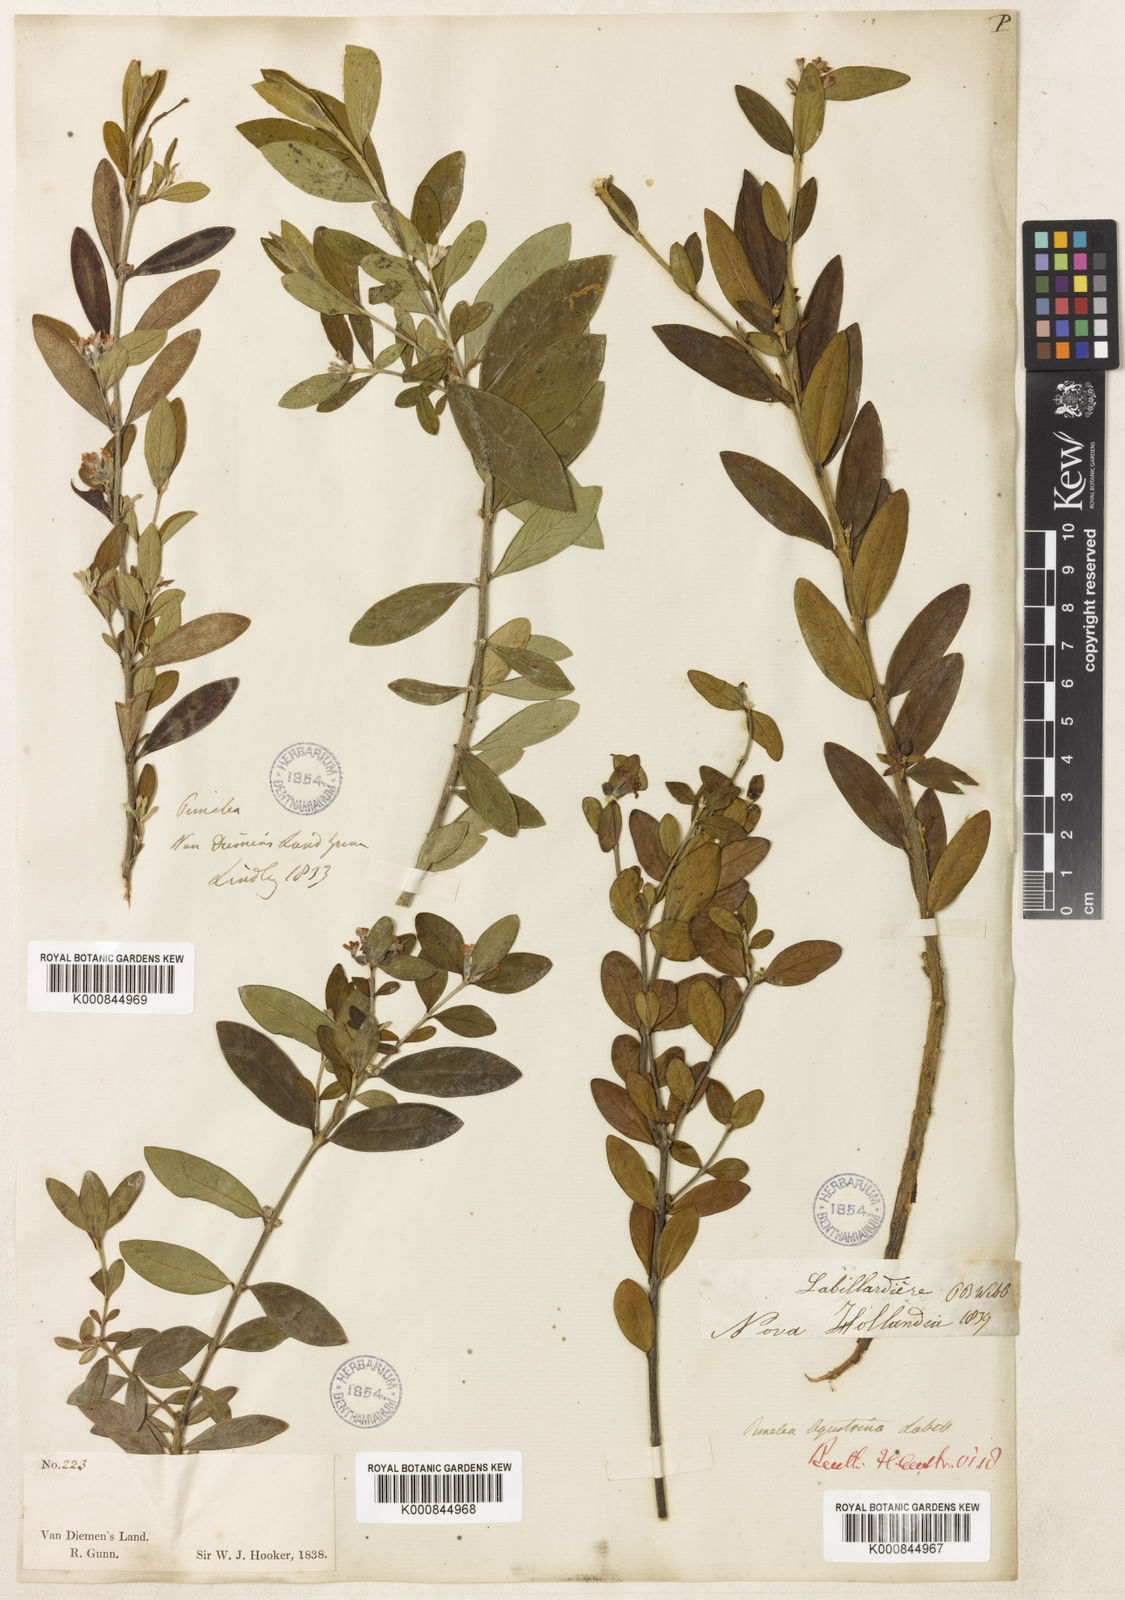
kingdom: Plantae
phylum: Tracheophyta
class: Magnoliopsida
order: Malvales
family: Thymelaeaceae
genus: Pimelea
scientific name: Pimelea drupacea
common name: Cherry riceflower
